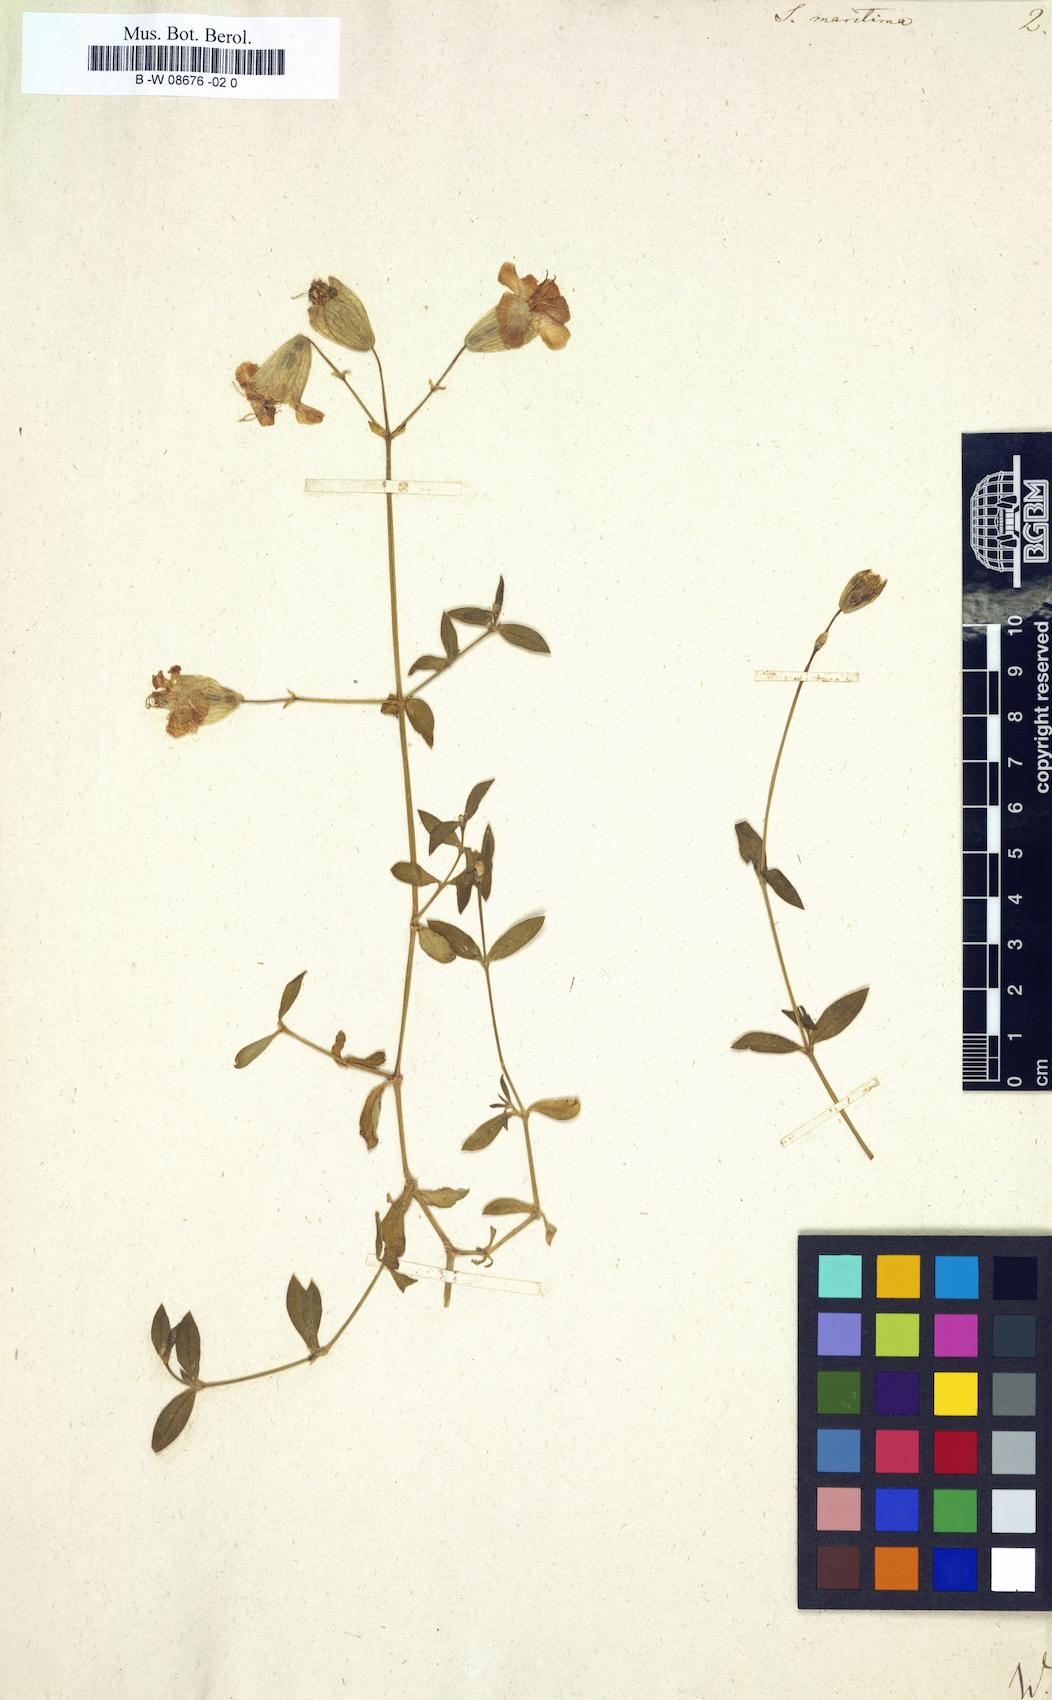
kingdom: Plantae
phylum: Tracheophyta
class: Magnoliopsida
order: Caryophyllales
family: Caryophyllaceae
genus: Silene
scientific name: Silene uniflora
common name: Sea campion
